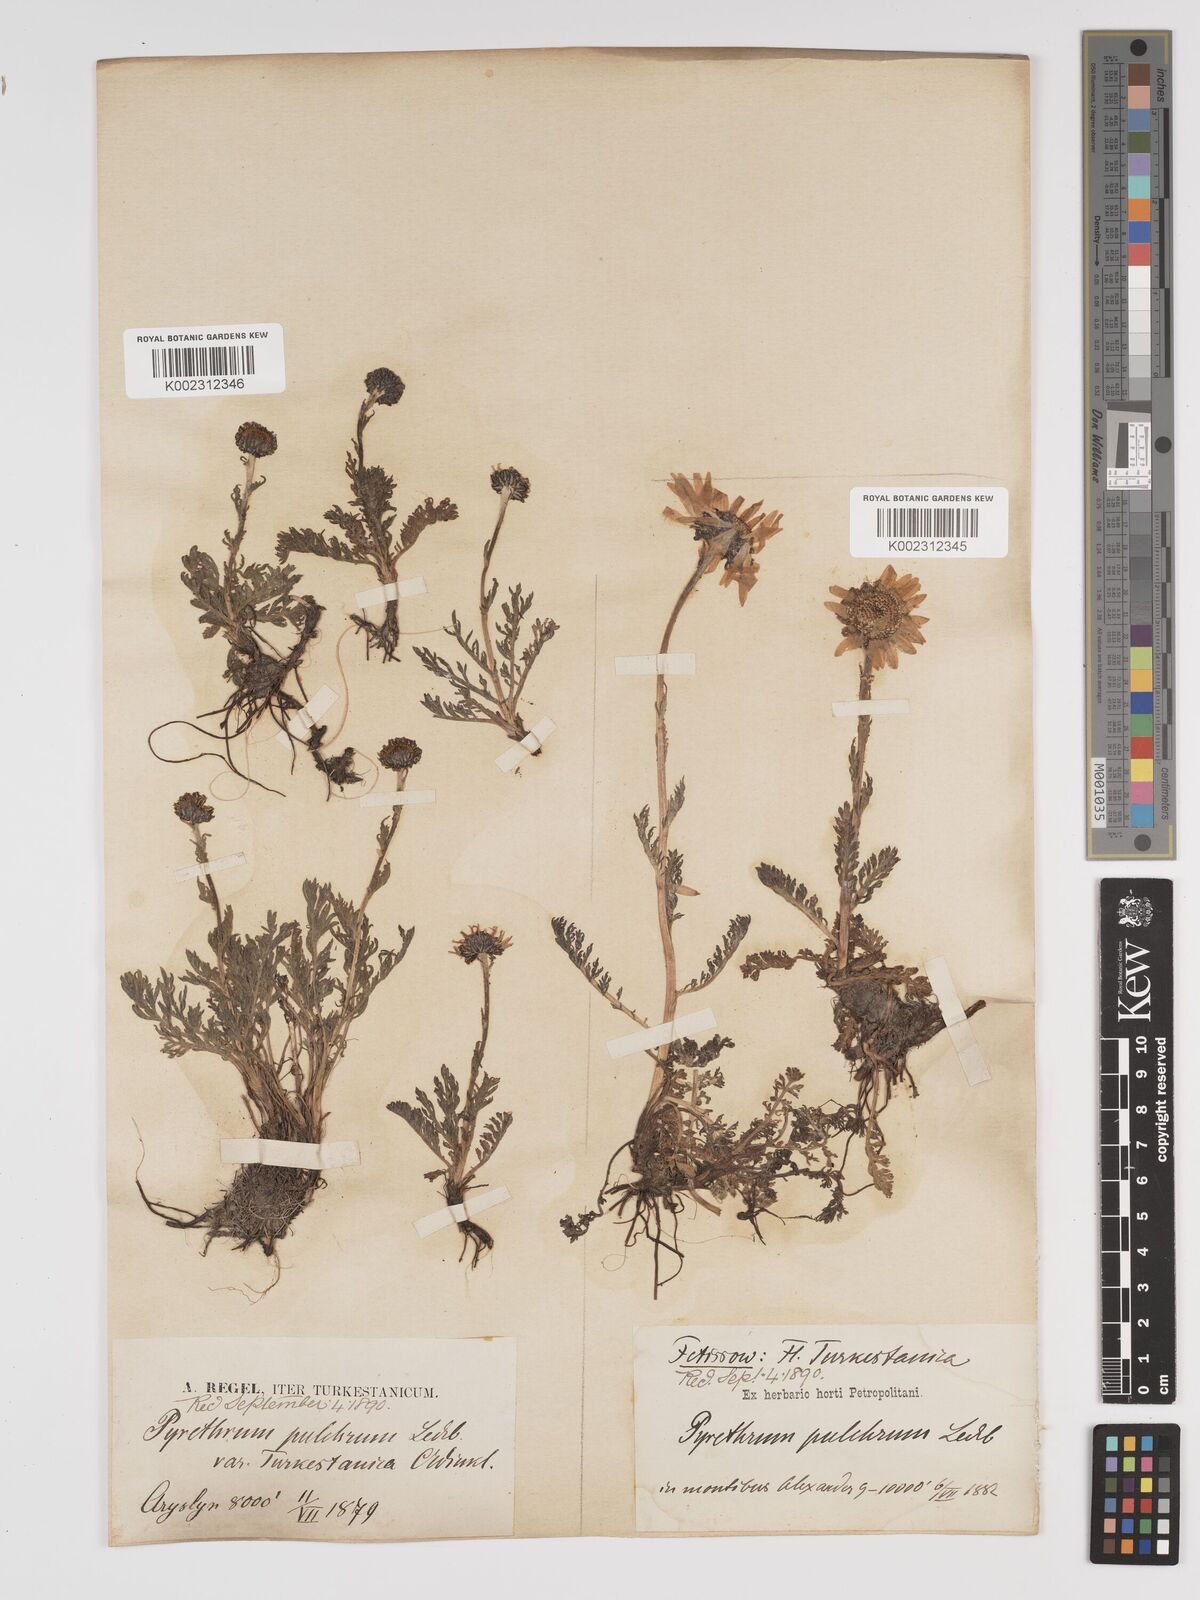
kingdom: Plantae
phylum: Tracheophyta
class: Magnoliopsida
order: Asterales
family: Asteraceae
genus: Tanacetum
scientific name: Tanacetum pulchrum
